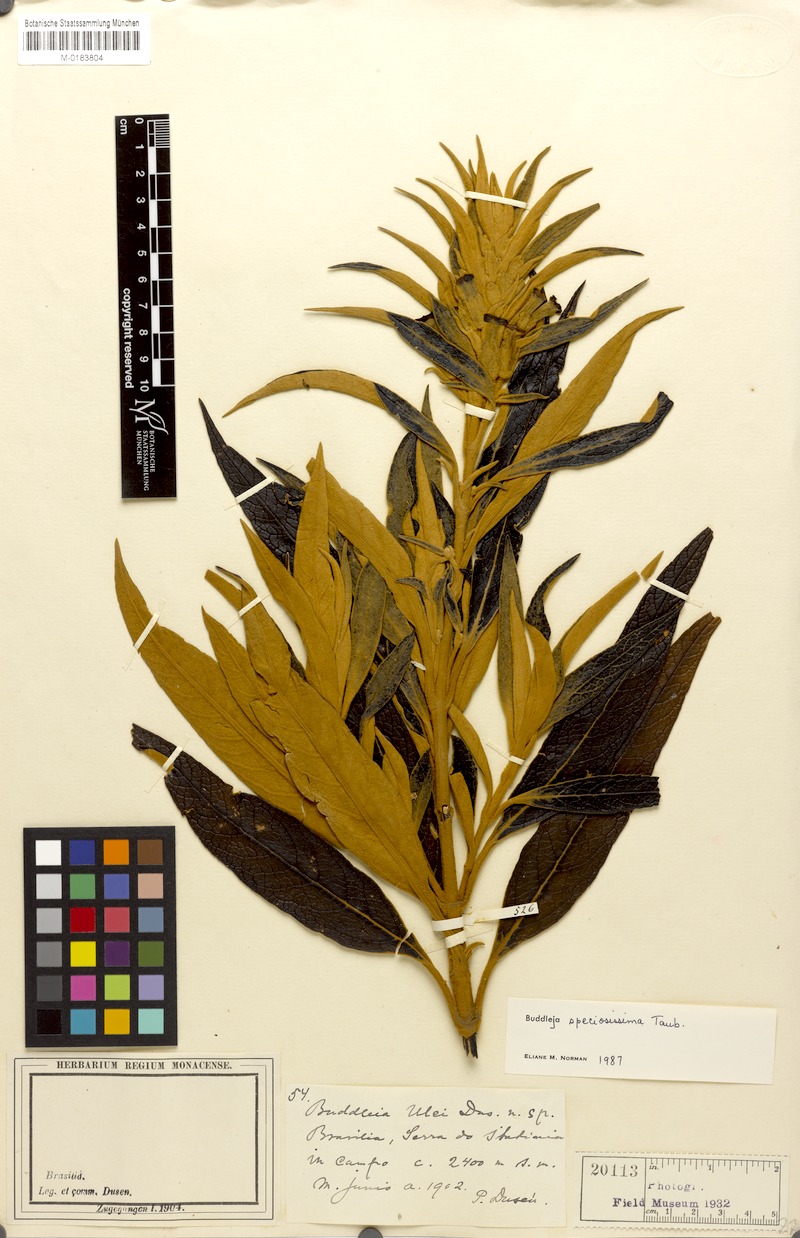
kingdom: Plantae
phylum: Tracheophyta
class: Magnoliopsida
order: Lamiales
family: Scrophulariaceae
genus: Buddleja
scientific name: Buddleja speciosissima
